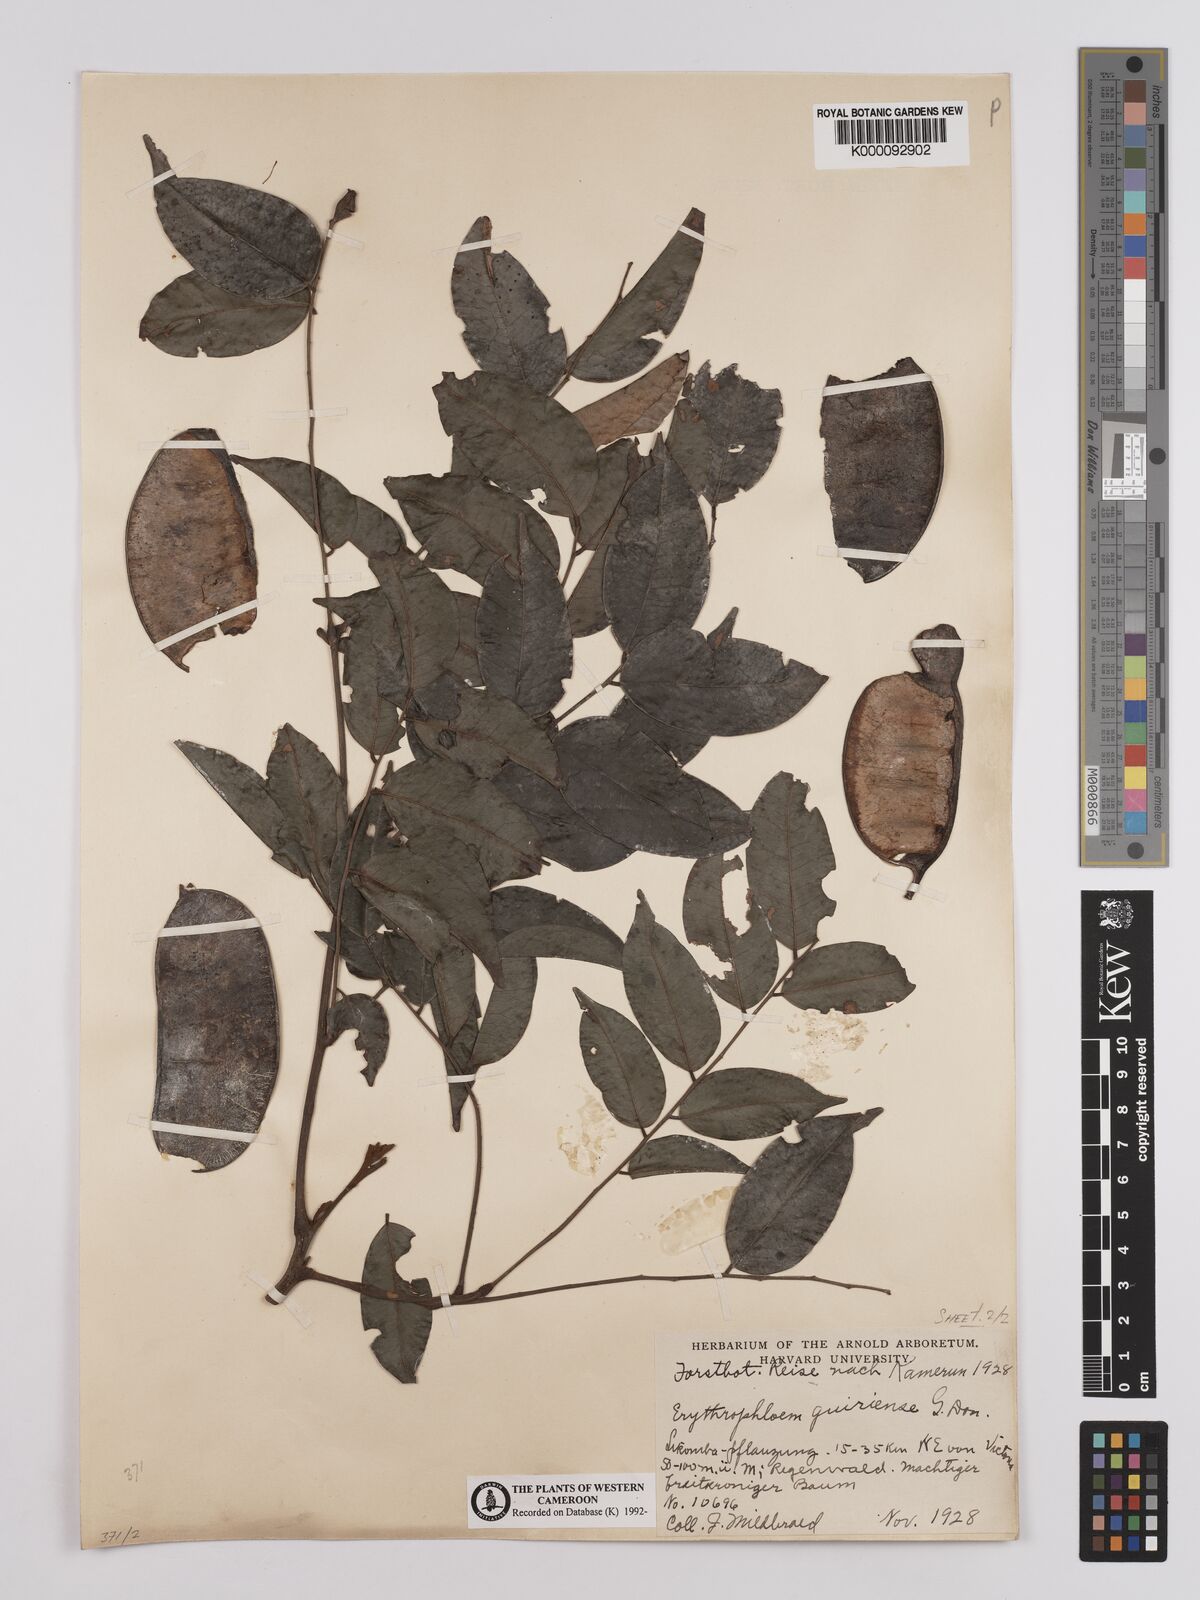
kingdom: Plantae
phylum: Tracheophyta
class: Magnoliopsida
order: Fabales
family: Fabaceae
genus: Erythrophleum
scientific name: Erythrophleum ivorense
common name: Ordealtree
